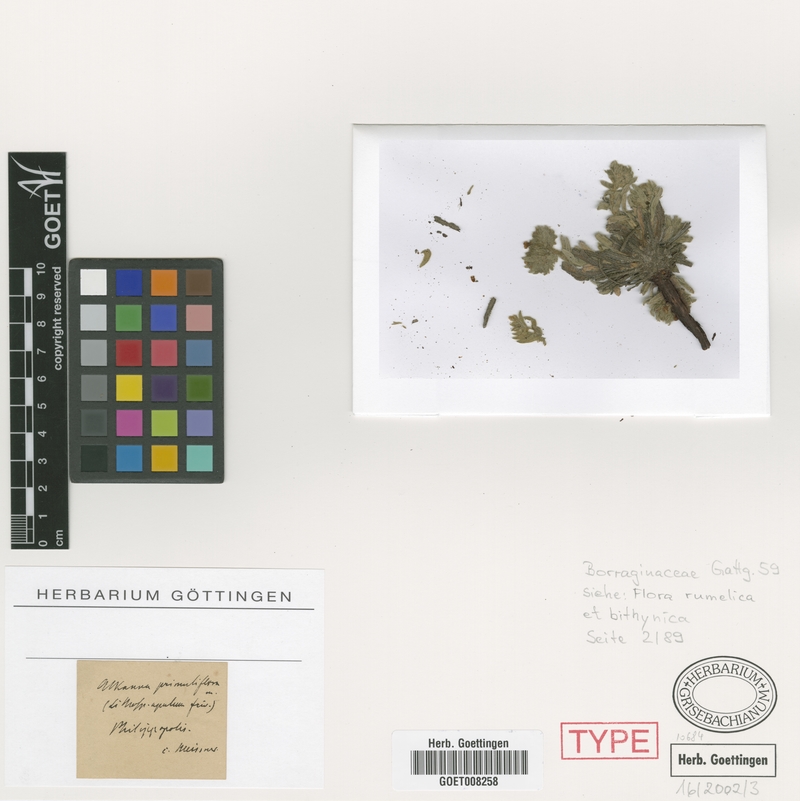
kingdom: Plantae
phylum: Tracheophyta
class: Magnoliopsida
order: Boraginales
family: Boraginaceae
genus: Alkanna
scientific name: Alkanna primuliflora
